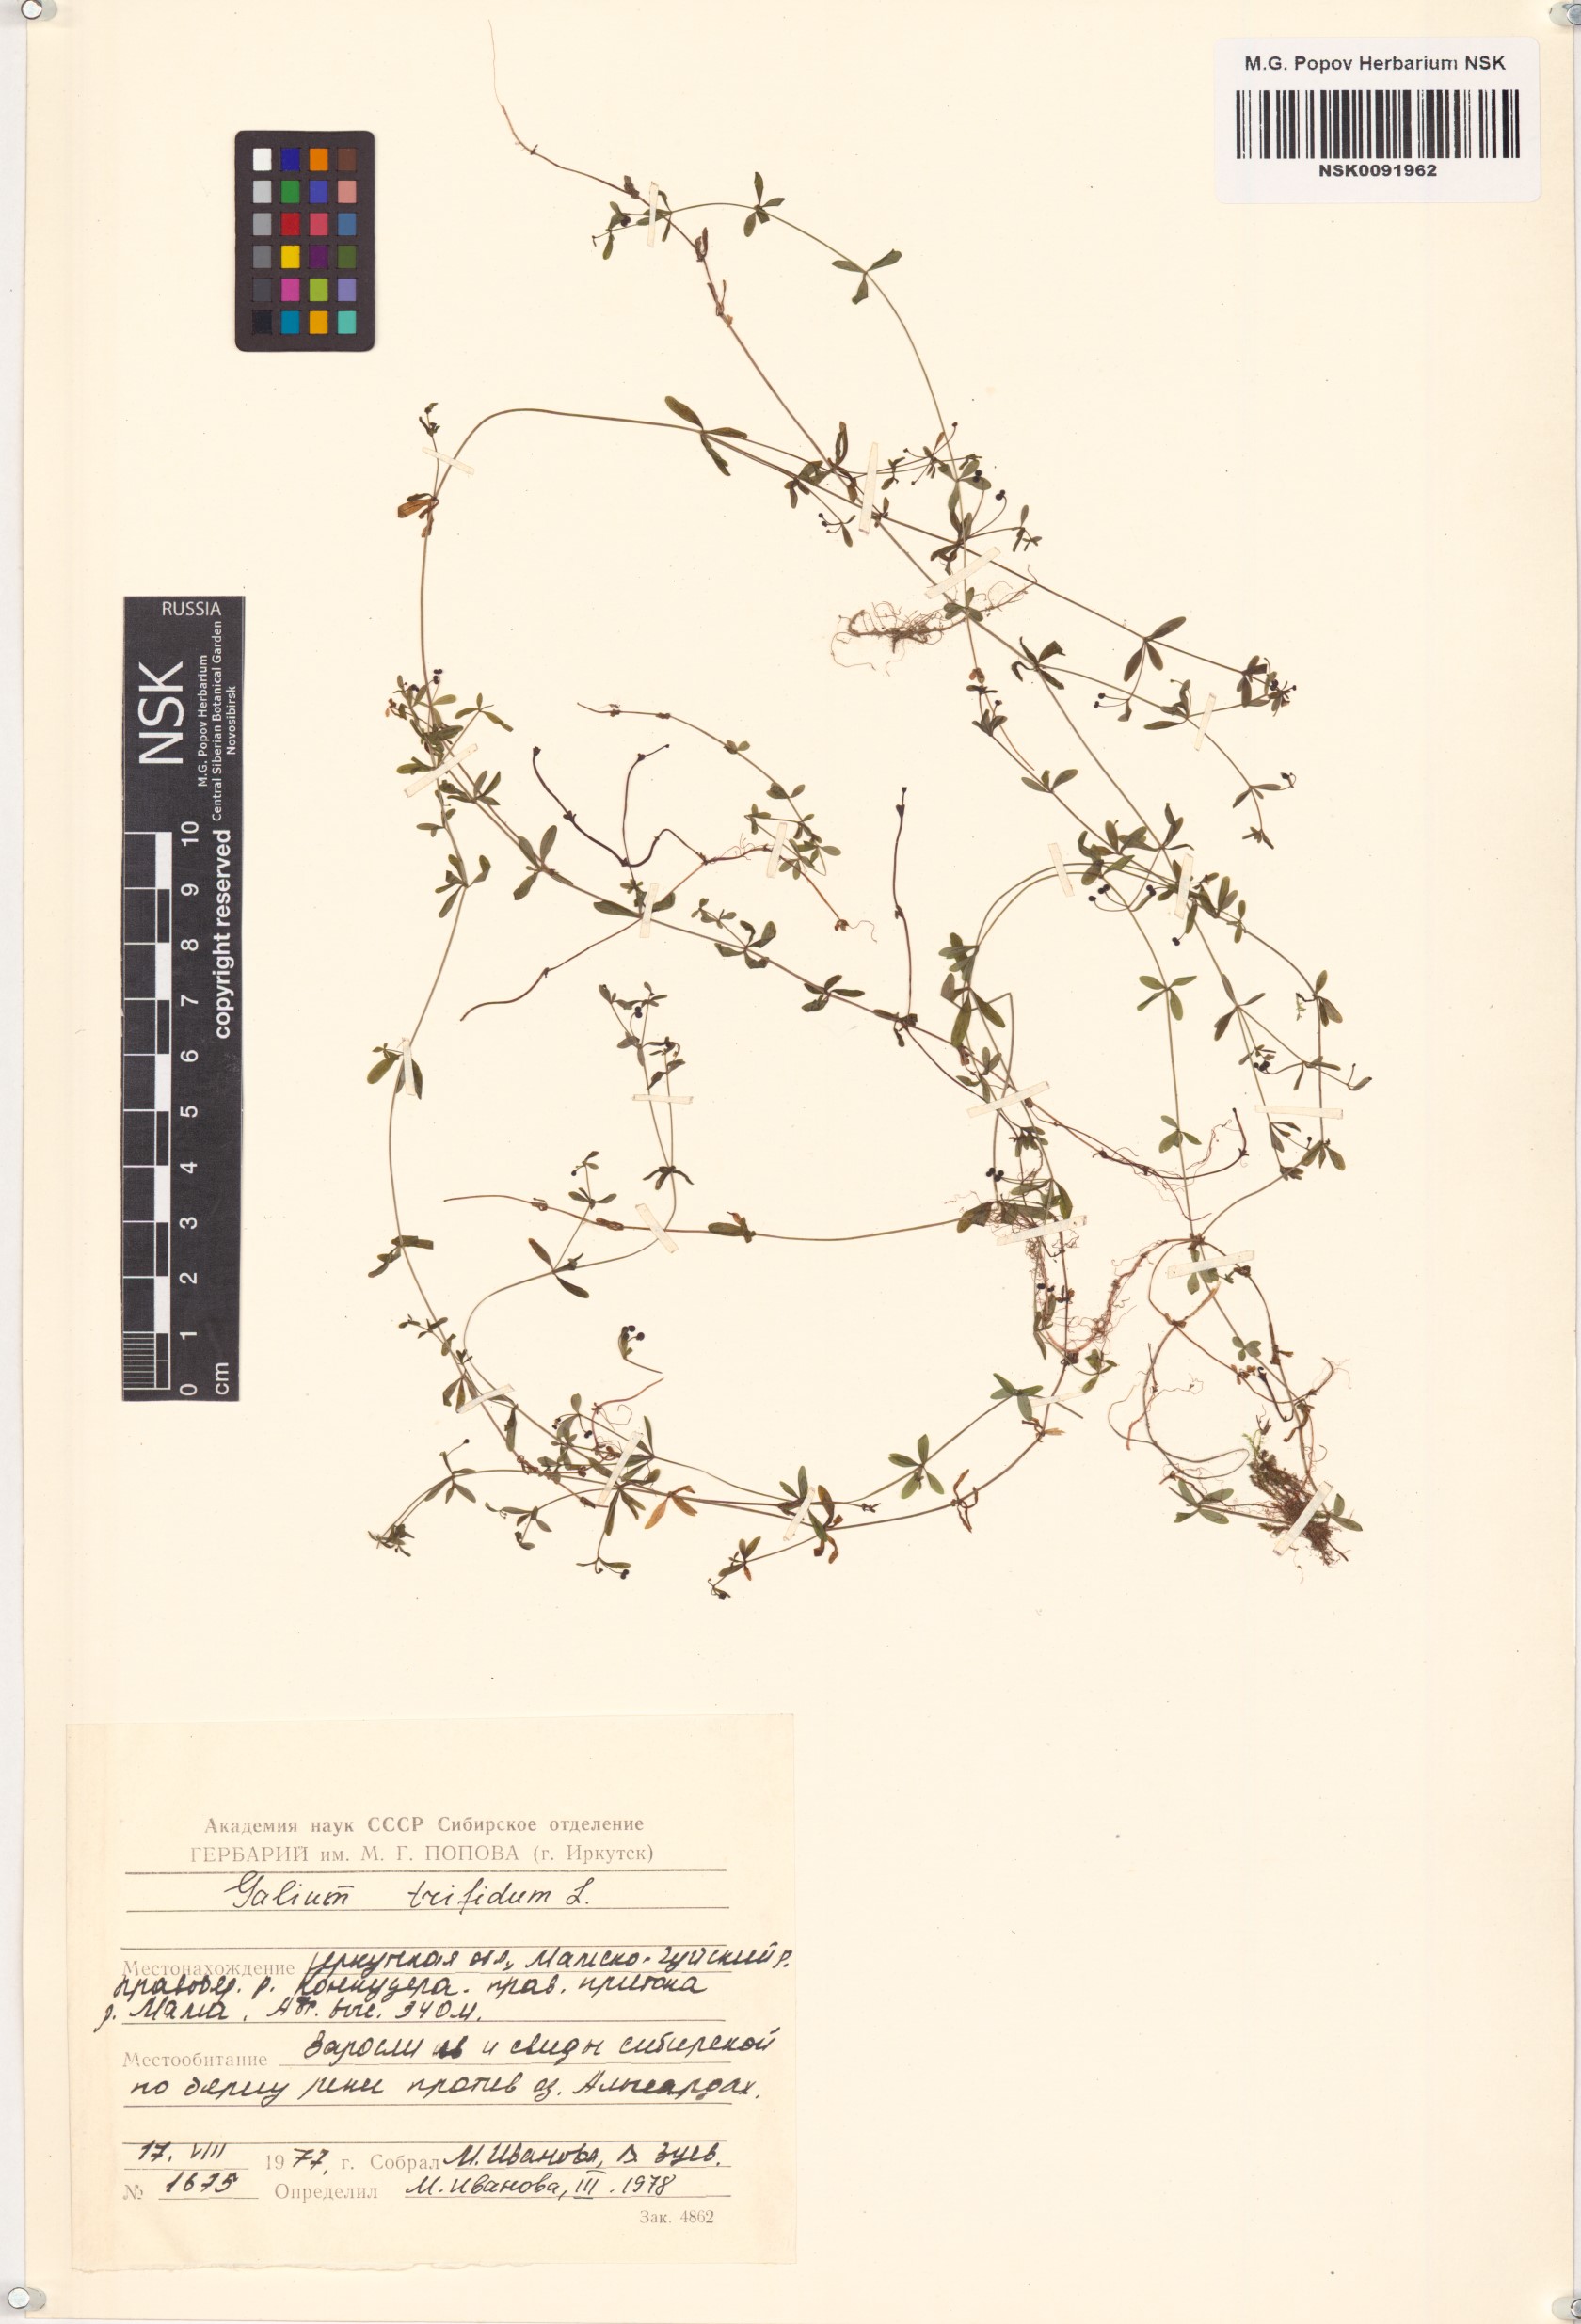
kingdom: Plantae
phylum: Tracheophyta
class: Magnoliopsida
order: Gentianales
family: Rubiaceae
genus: Galium
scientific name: Galium trifidum
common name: Small bedstraw
